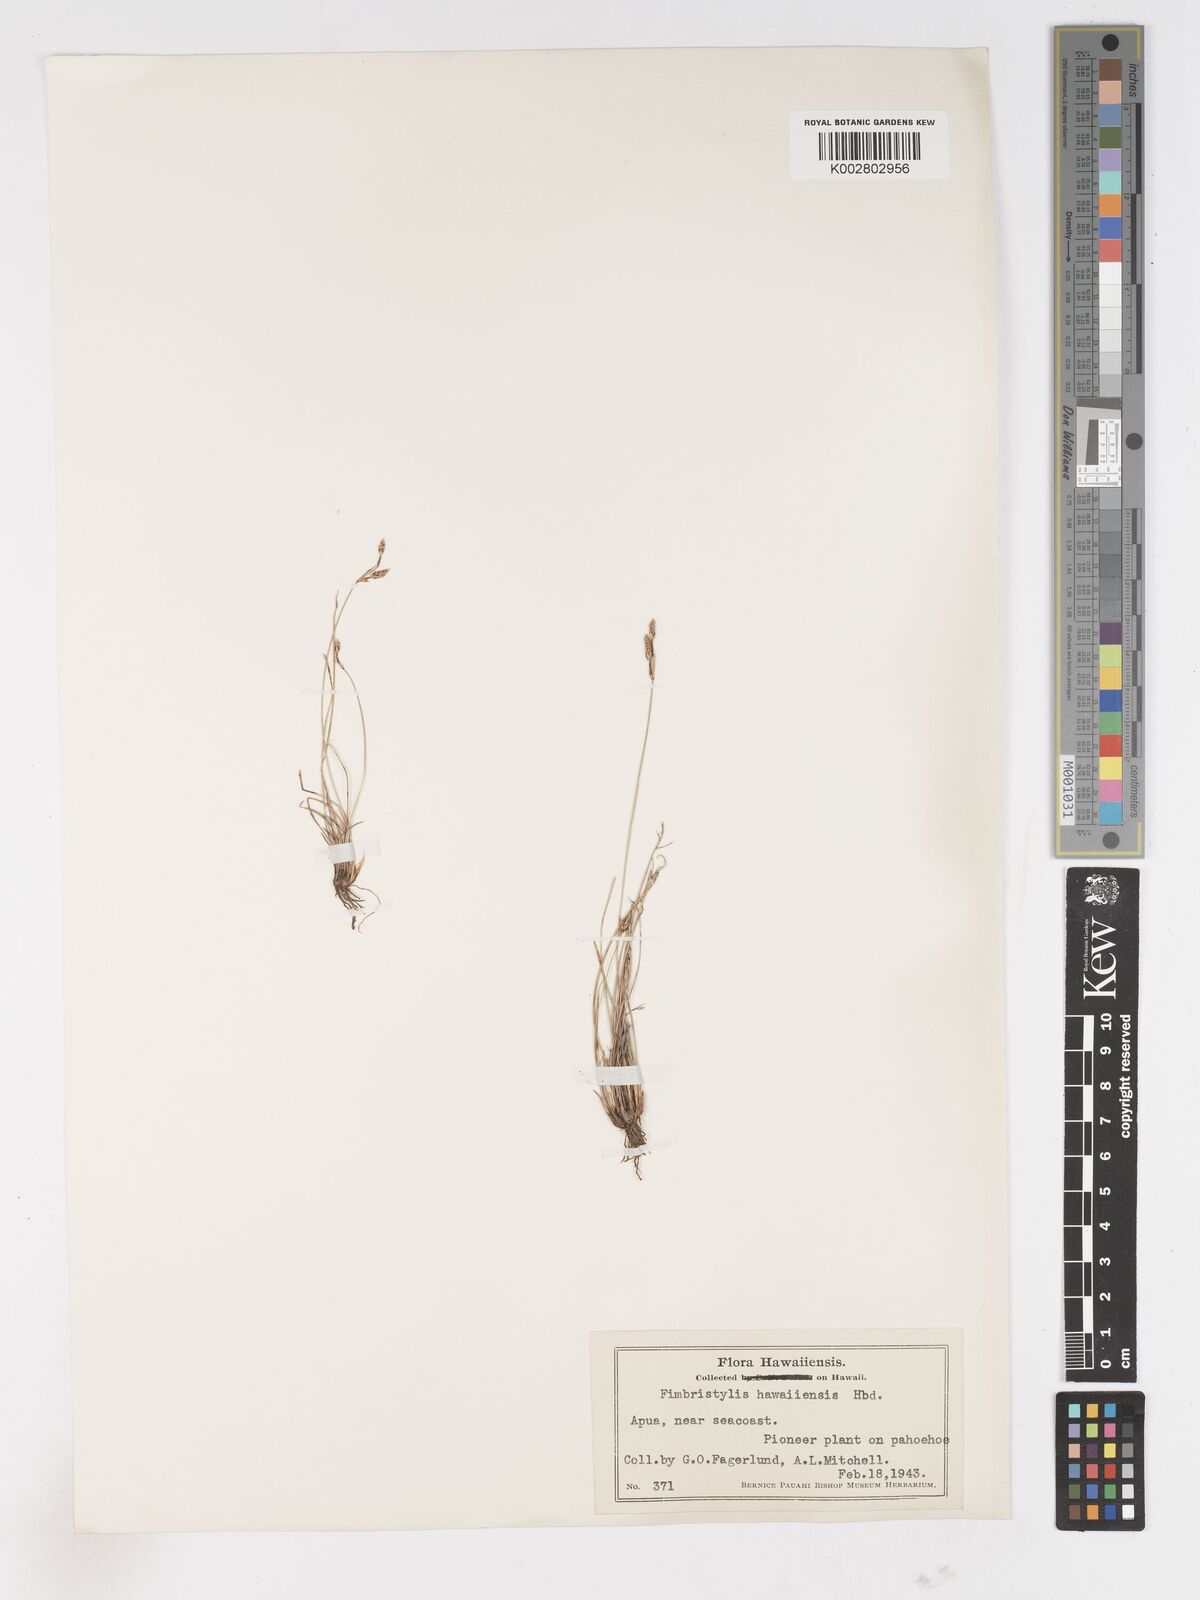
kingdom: Plantae
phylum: Tracheophyta
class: Liliopsida
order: Poales
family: Cyperaceae
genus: Fimbristylis
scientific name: Fimbristylis hawaiiensis
